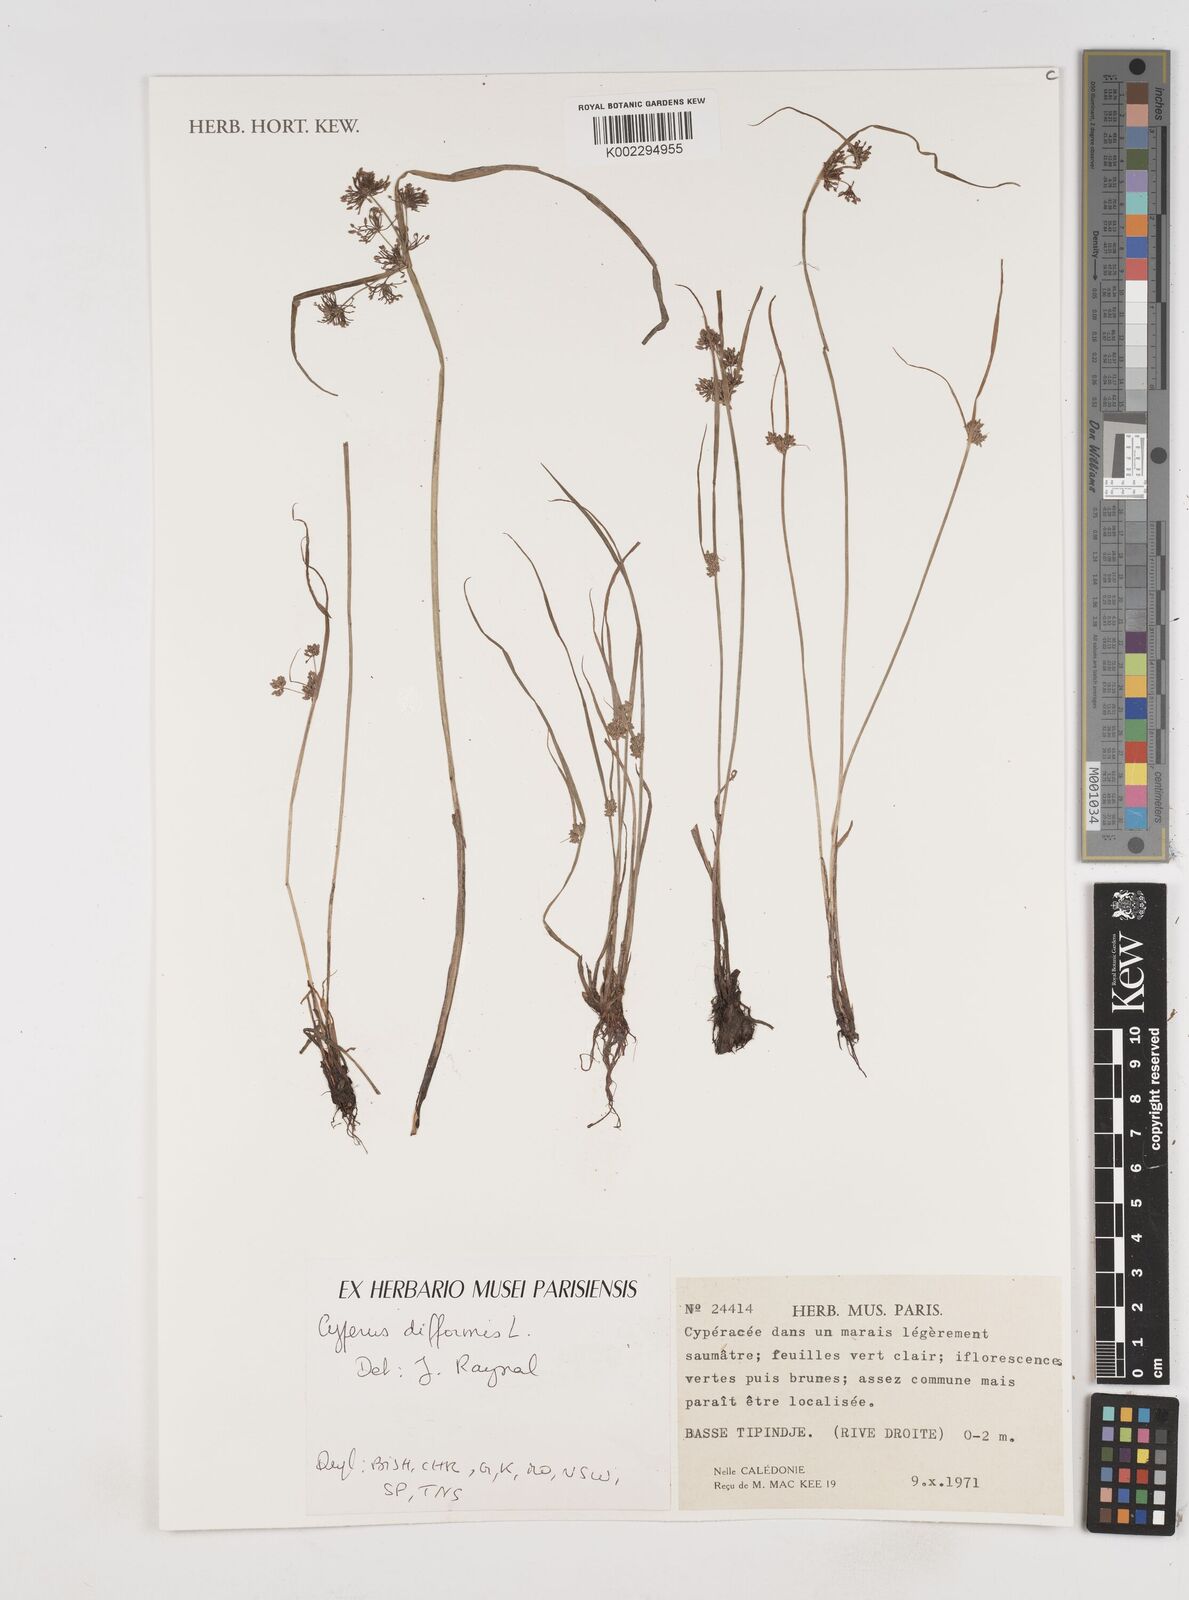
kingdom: Plantae
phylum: Tracheophyta
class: Liliopsida
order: Poales
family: Cyperaceae
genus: Cyperus
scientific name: Cyperus difformis
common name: Variable flatsedge
